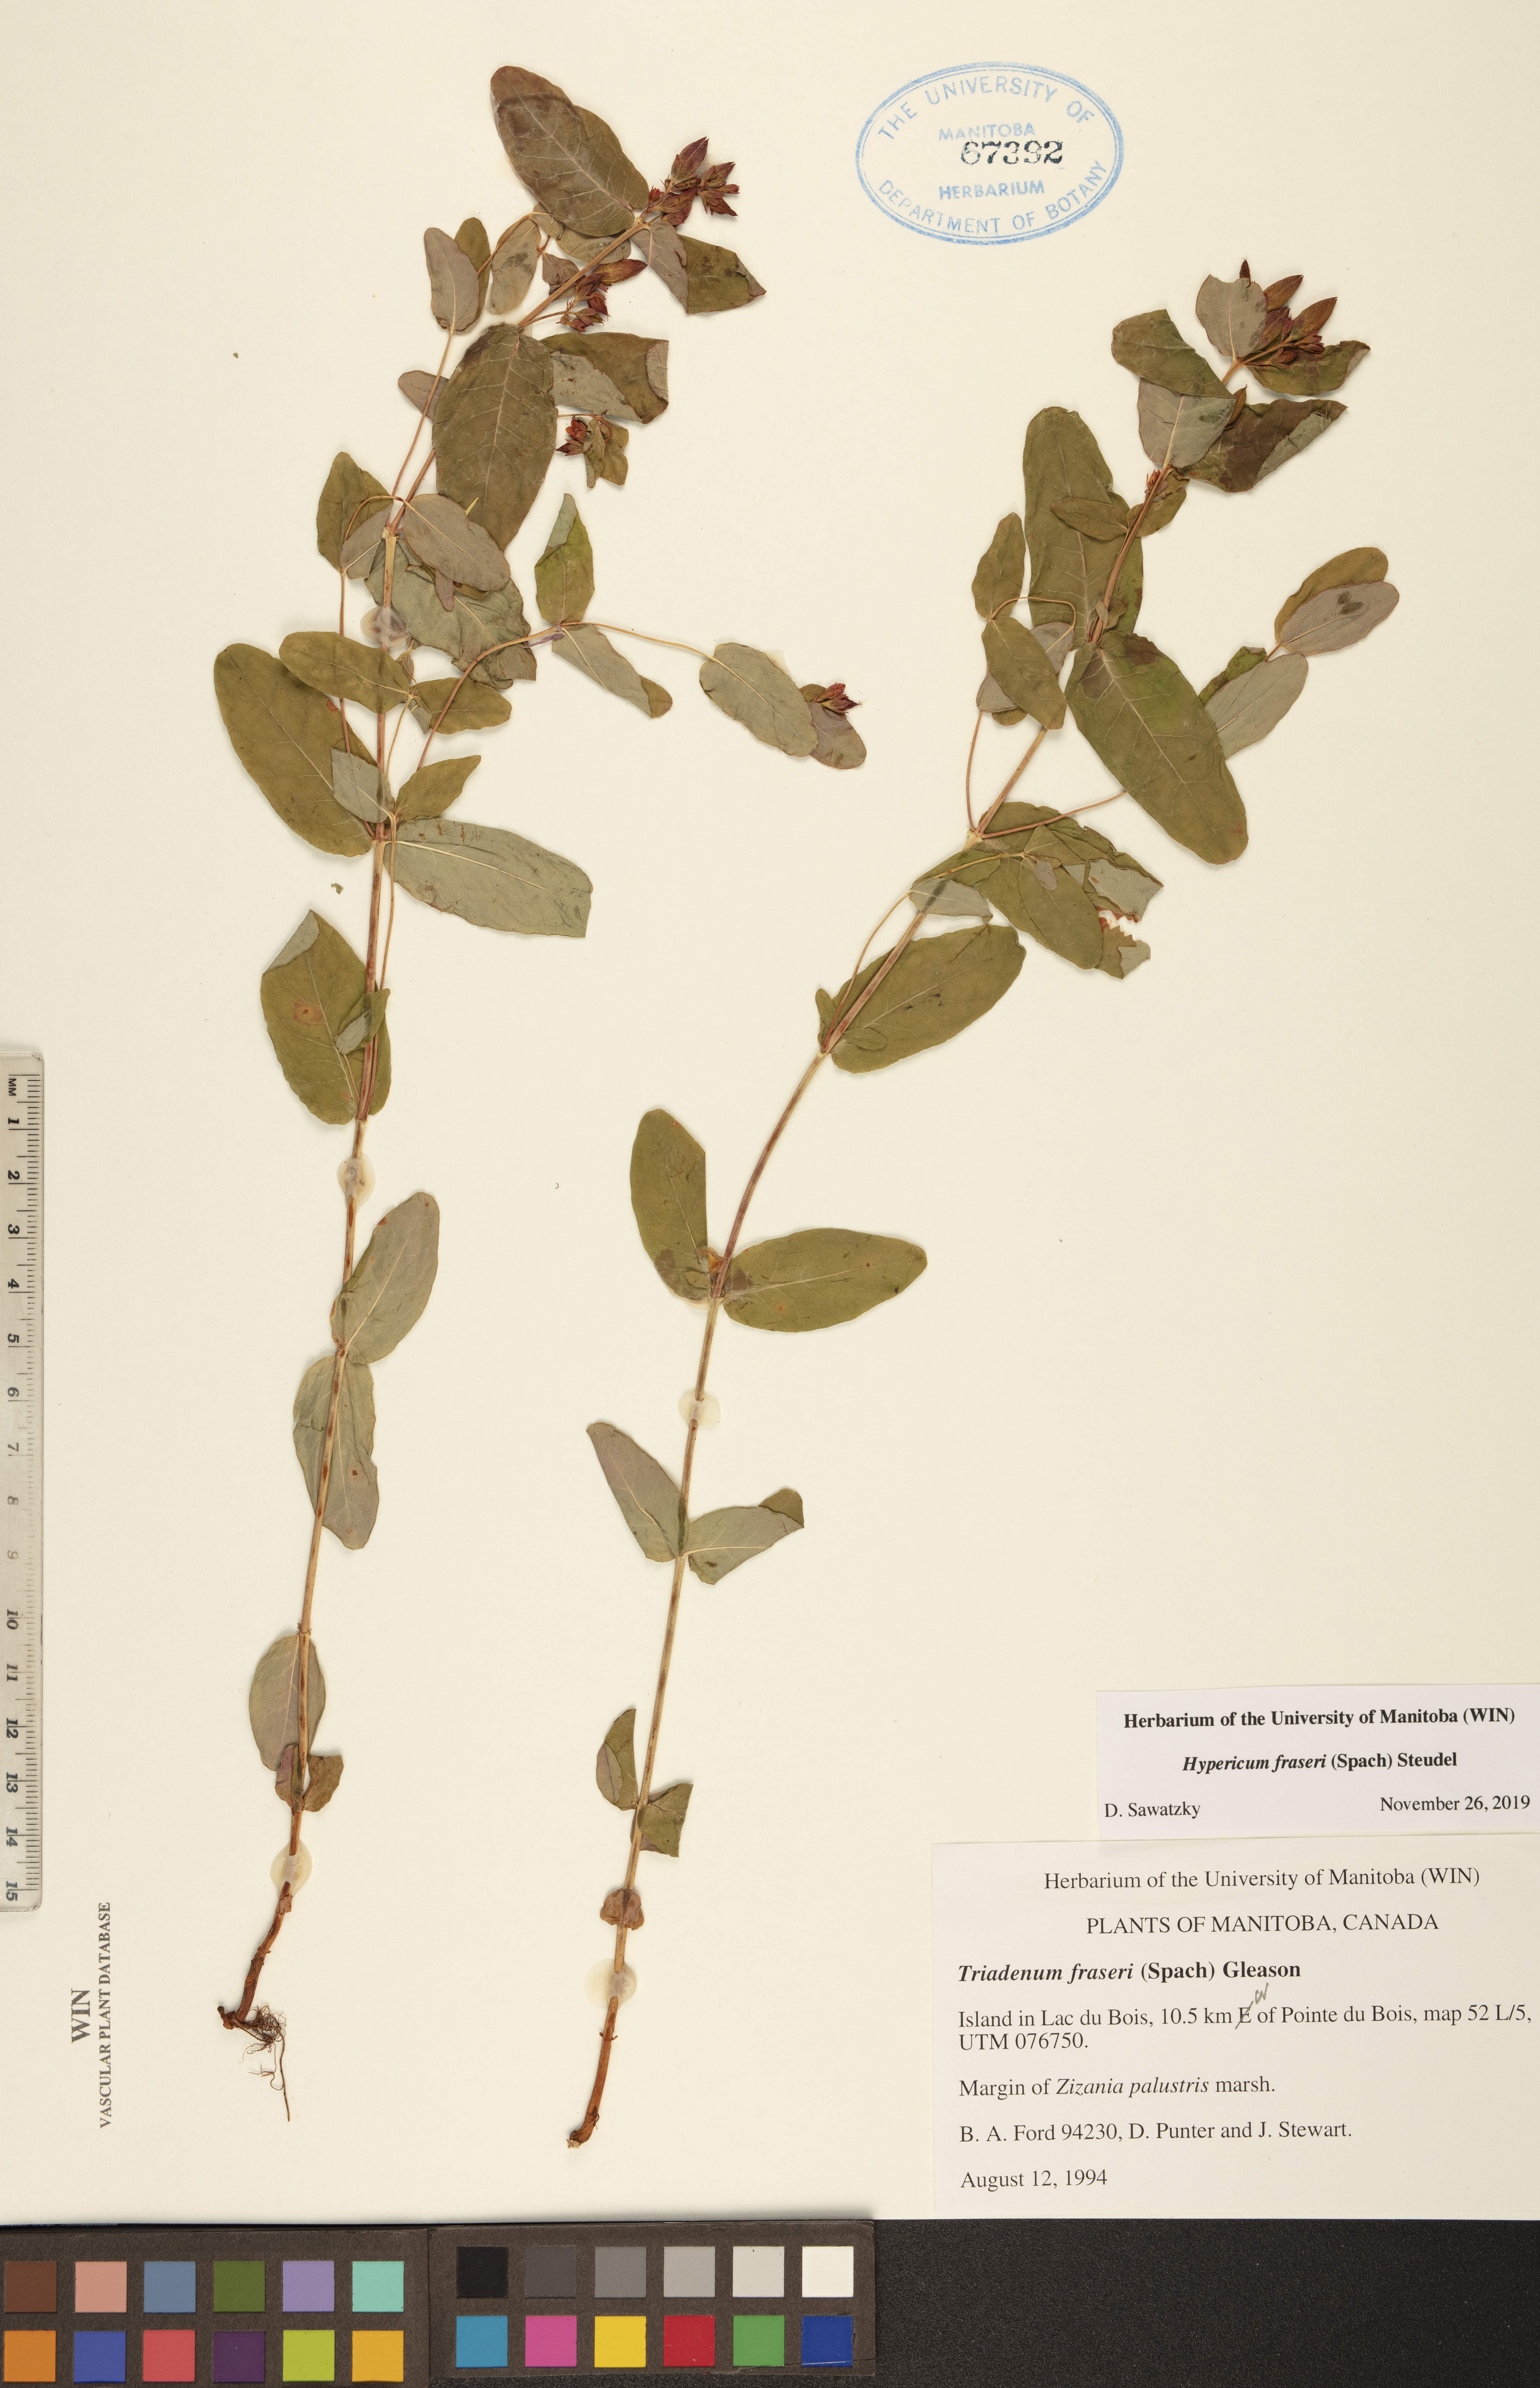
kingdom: Plantae
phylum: Tracheophyta
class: Magnoliopsida
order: Malpighiales
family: Hypericaceae
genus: Triadenum
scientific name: Triadenum fraseri
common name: Fraser's marsh st. johnswort
